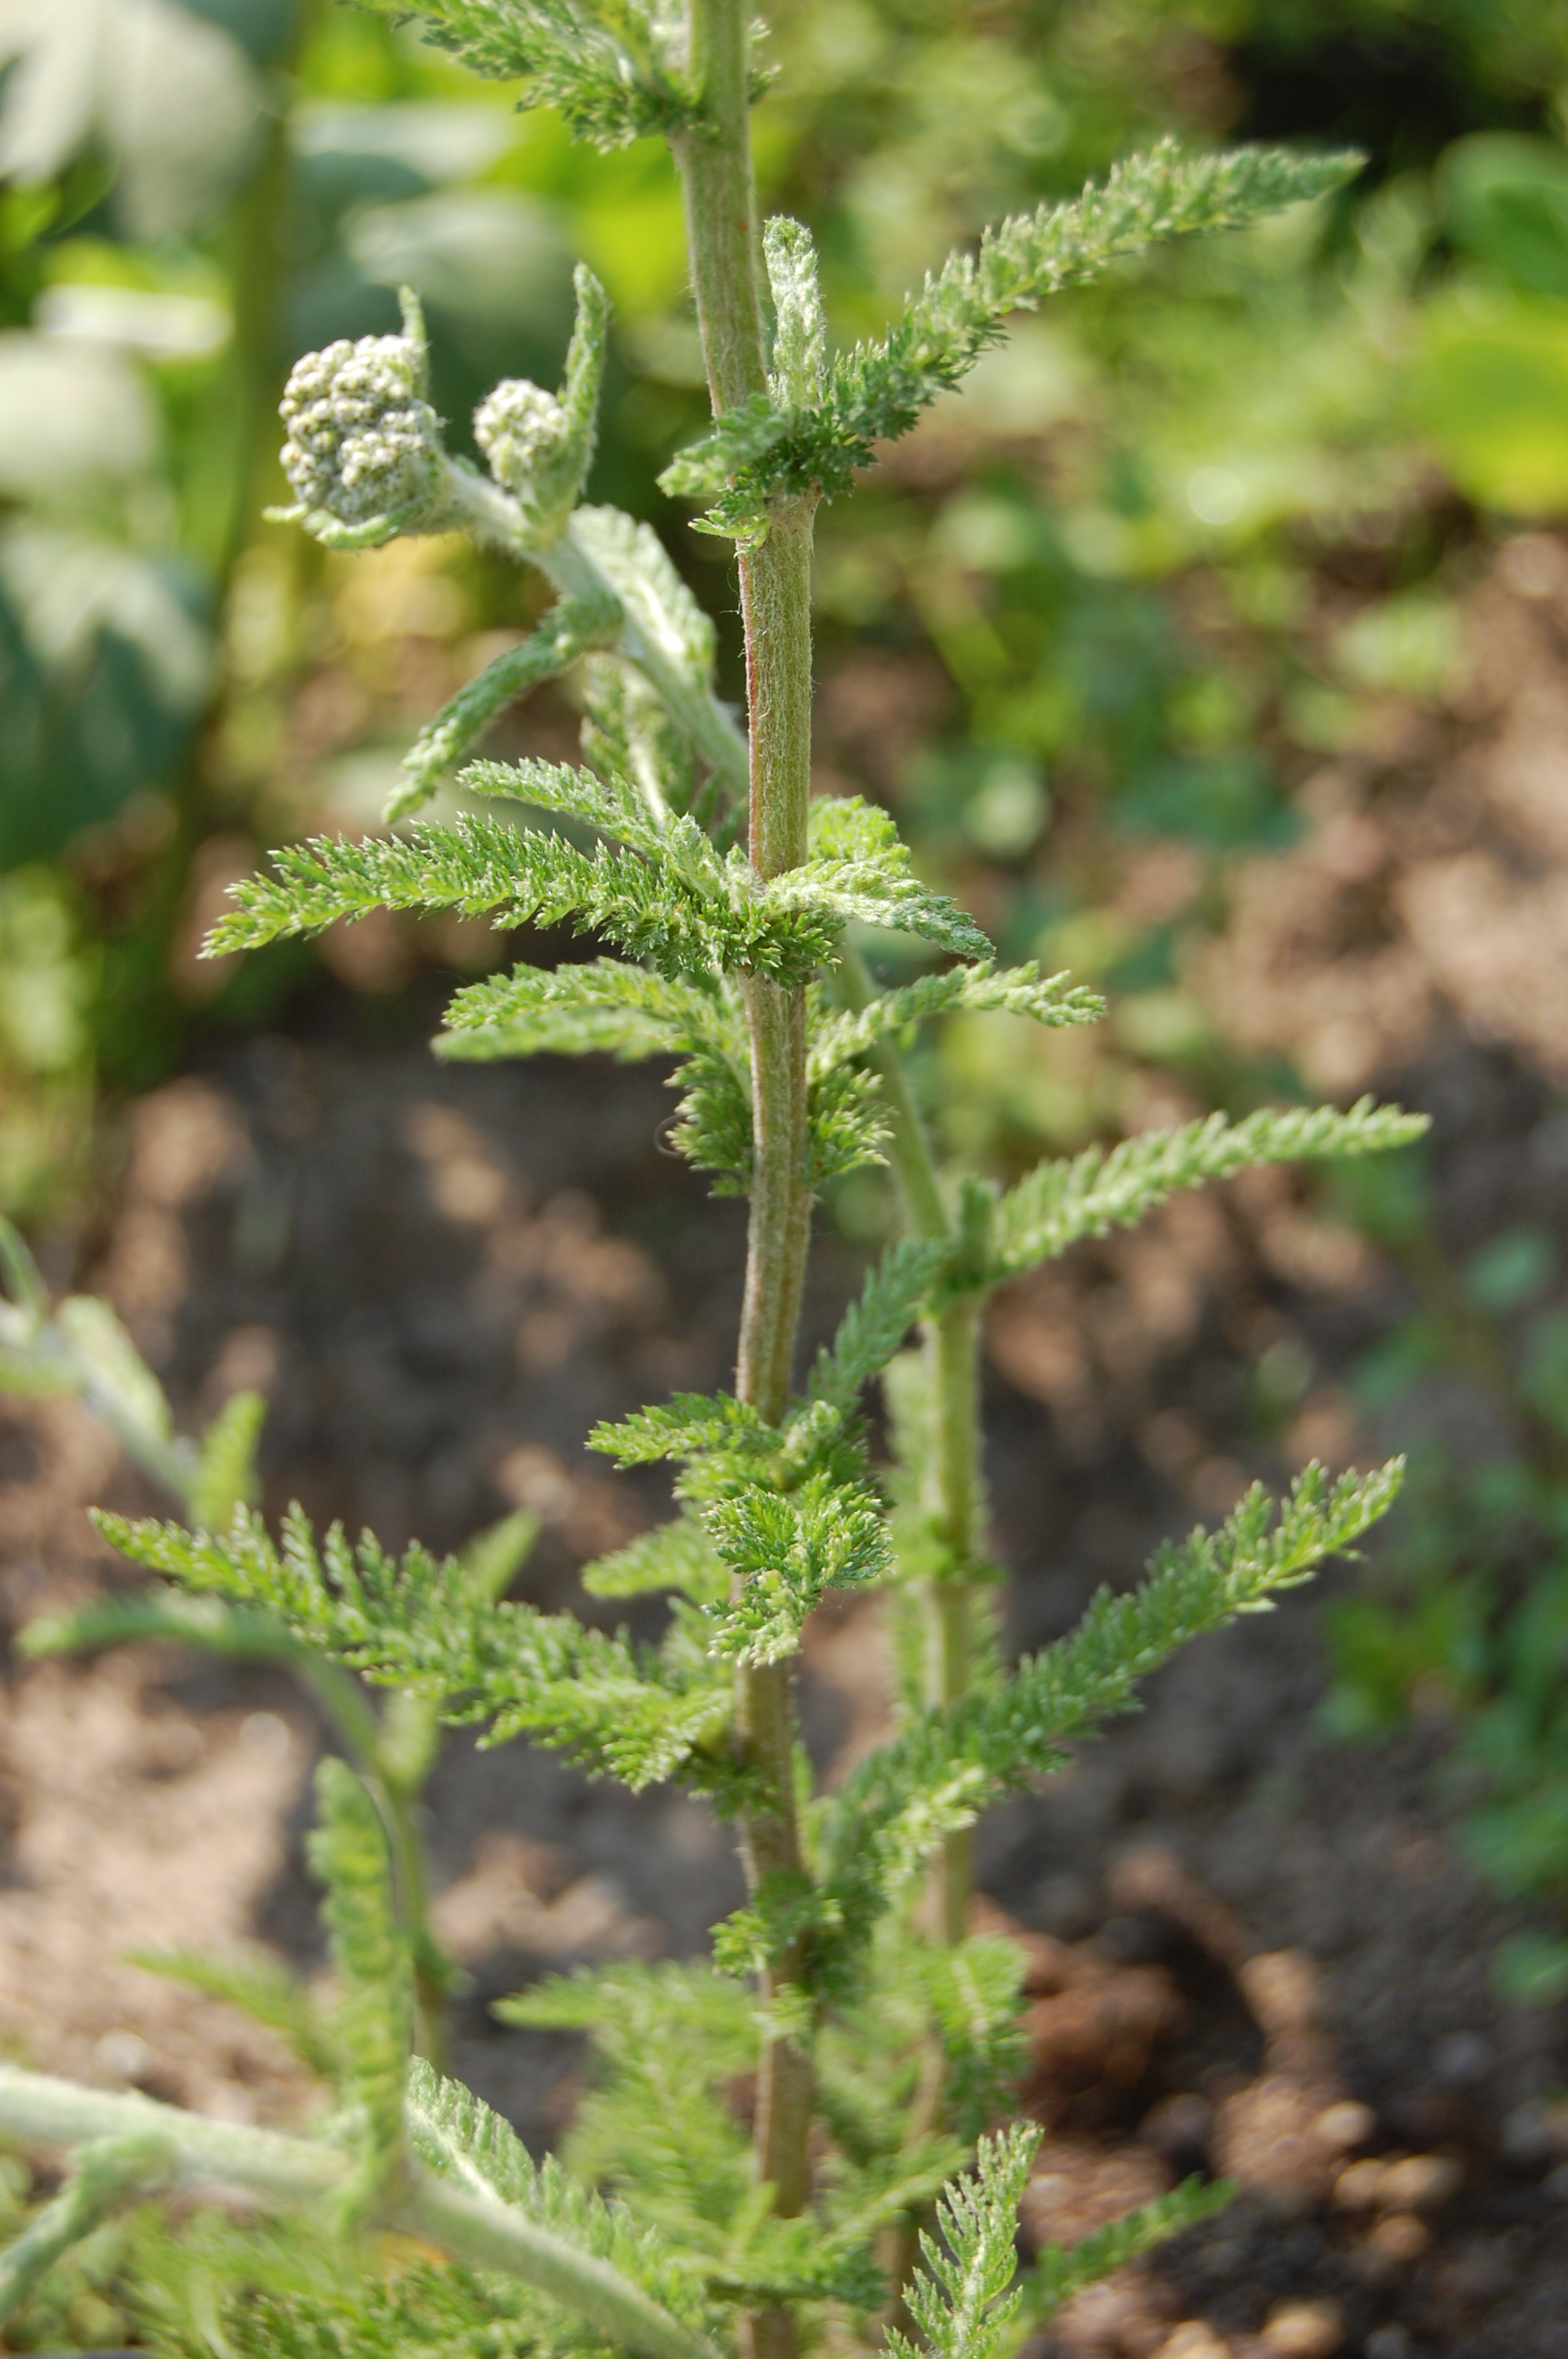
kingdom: Plantae
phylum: Tracheophyta
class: Magnoliopsida
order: Asterales
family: Asteraceae
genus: Achillea
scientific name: Achillea millefolium
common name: Yarrow
